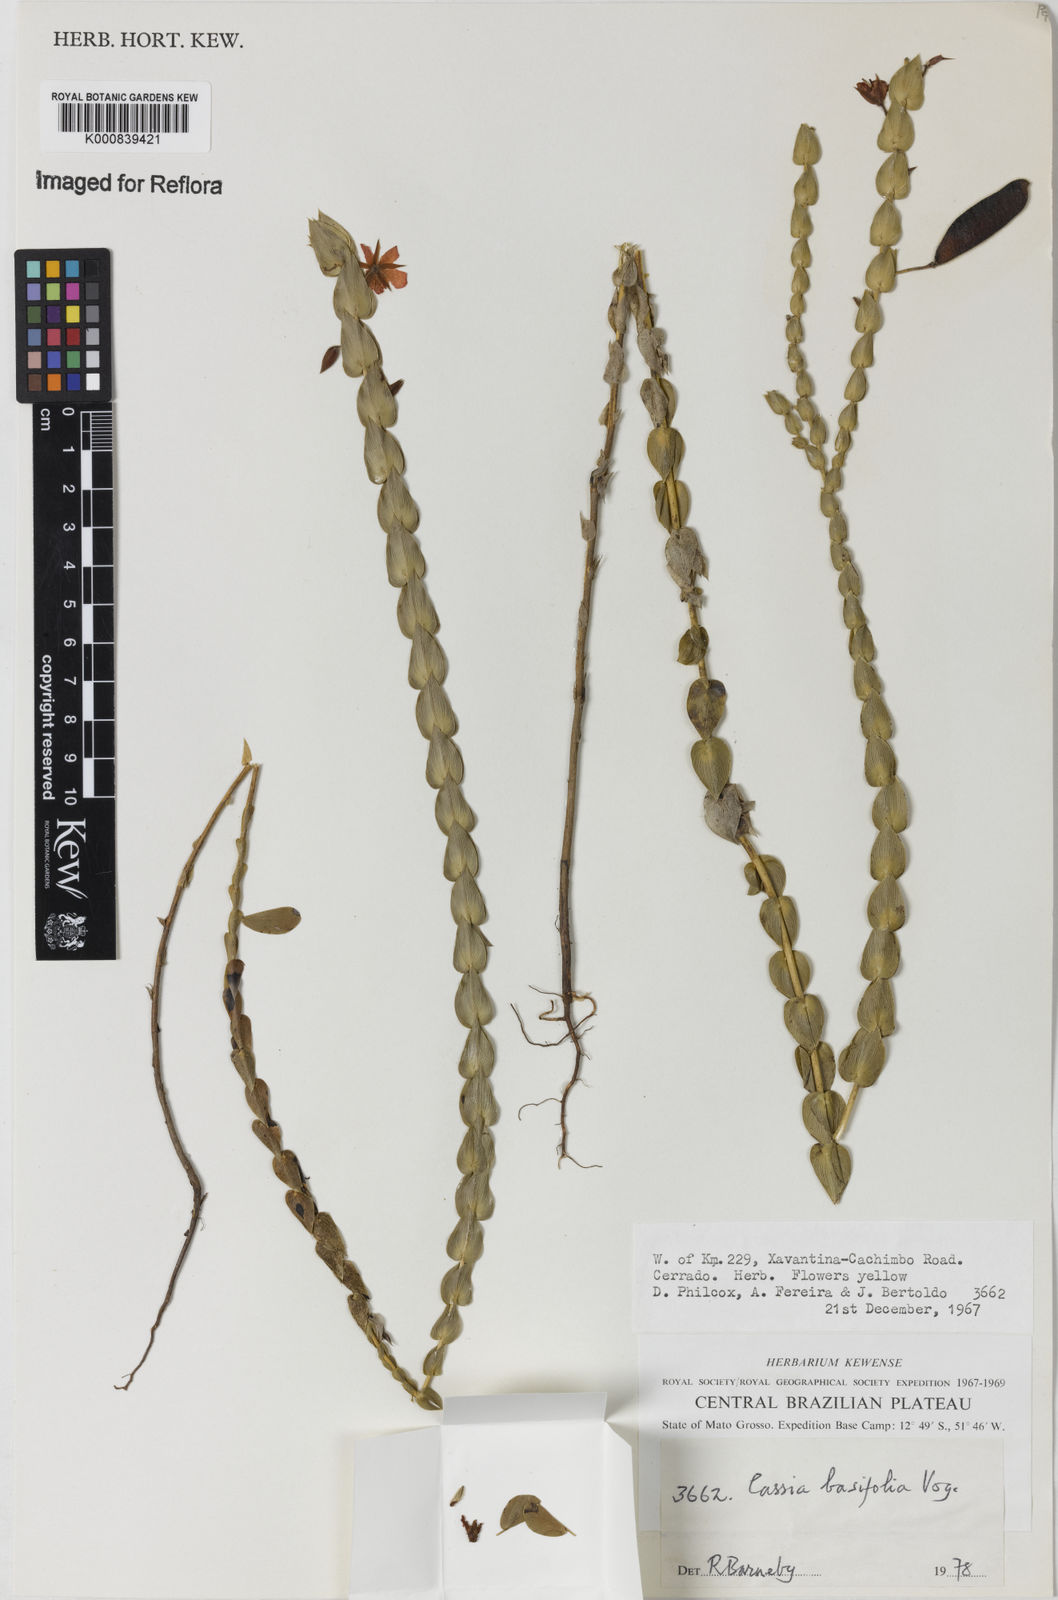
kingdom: Plantae
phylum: Tracheophyta
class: Magnoliopsida
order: Fabales
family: Fabaceae
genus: Chamaecrista
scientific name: Chamaecrista basifolia
